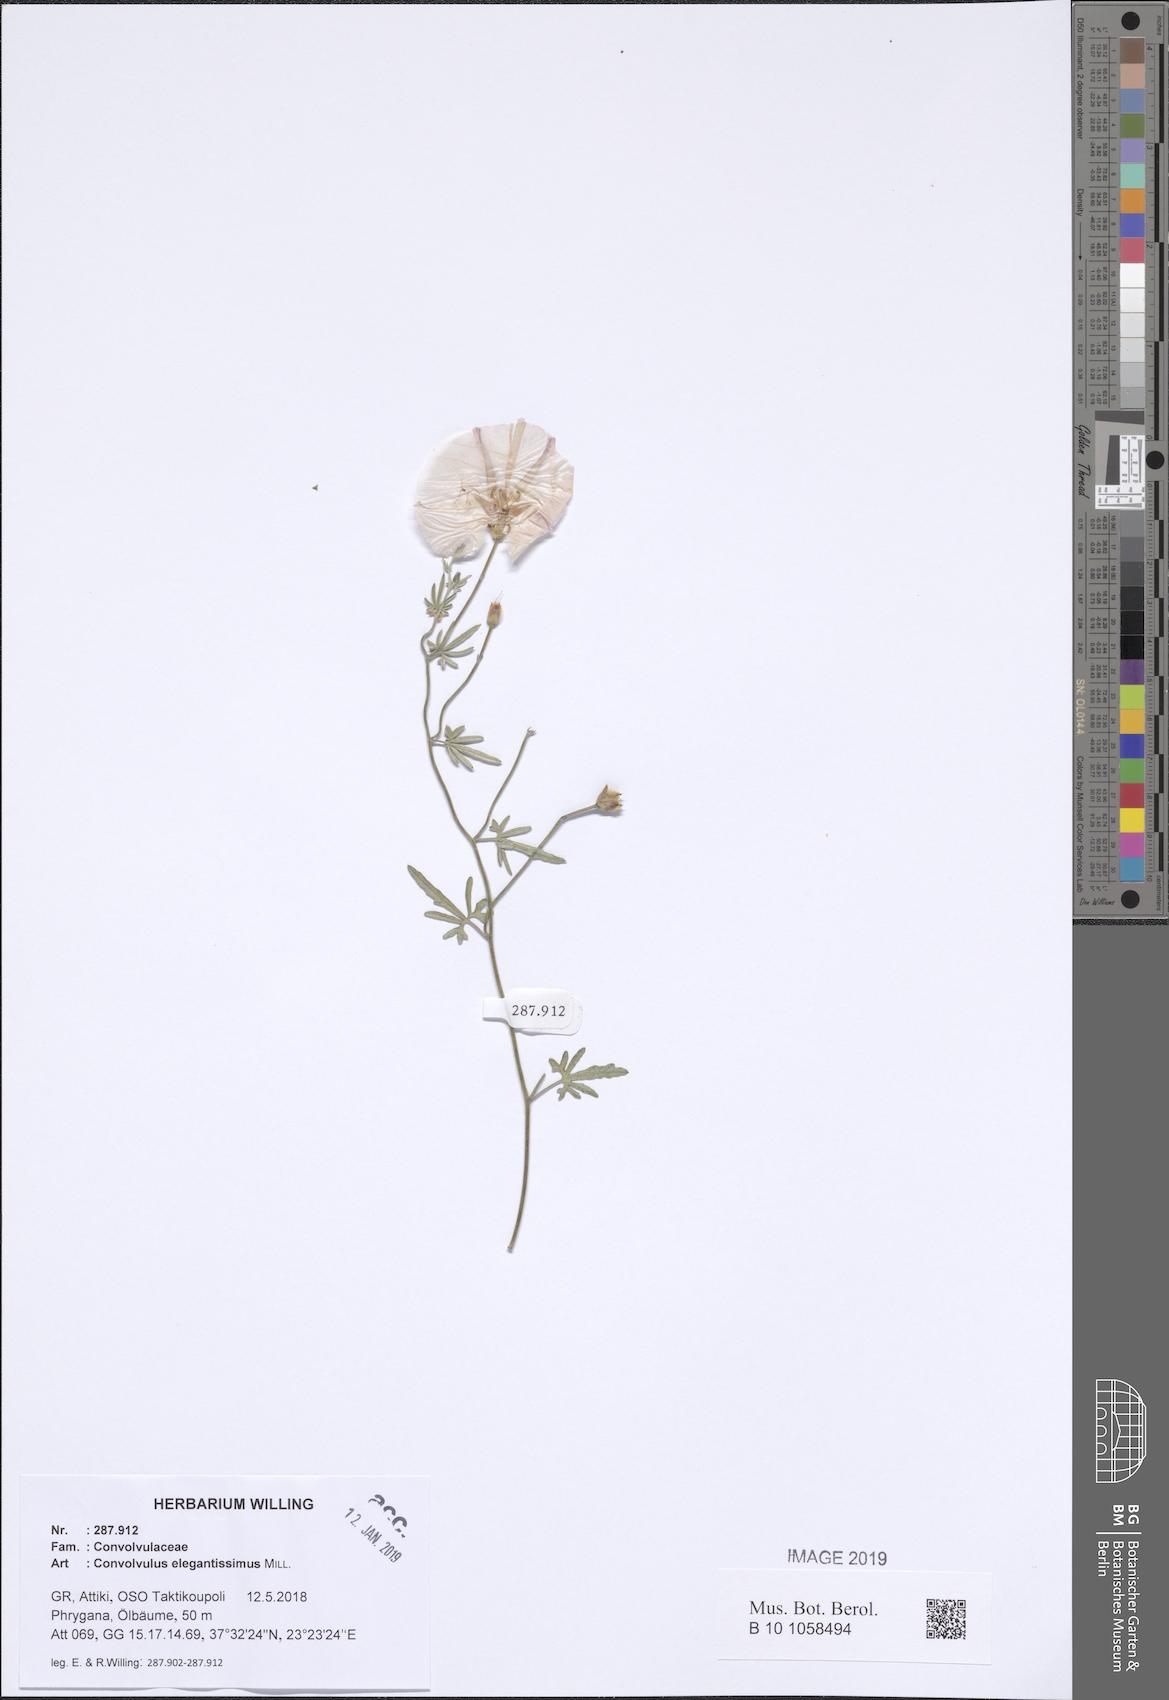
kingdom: Plantae
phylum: Tracheophyta
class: Magnoliopsida
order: Solanales
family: Convolvulaceae
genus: Convolvulus
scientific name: Convolvulus elegantissimus
